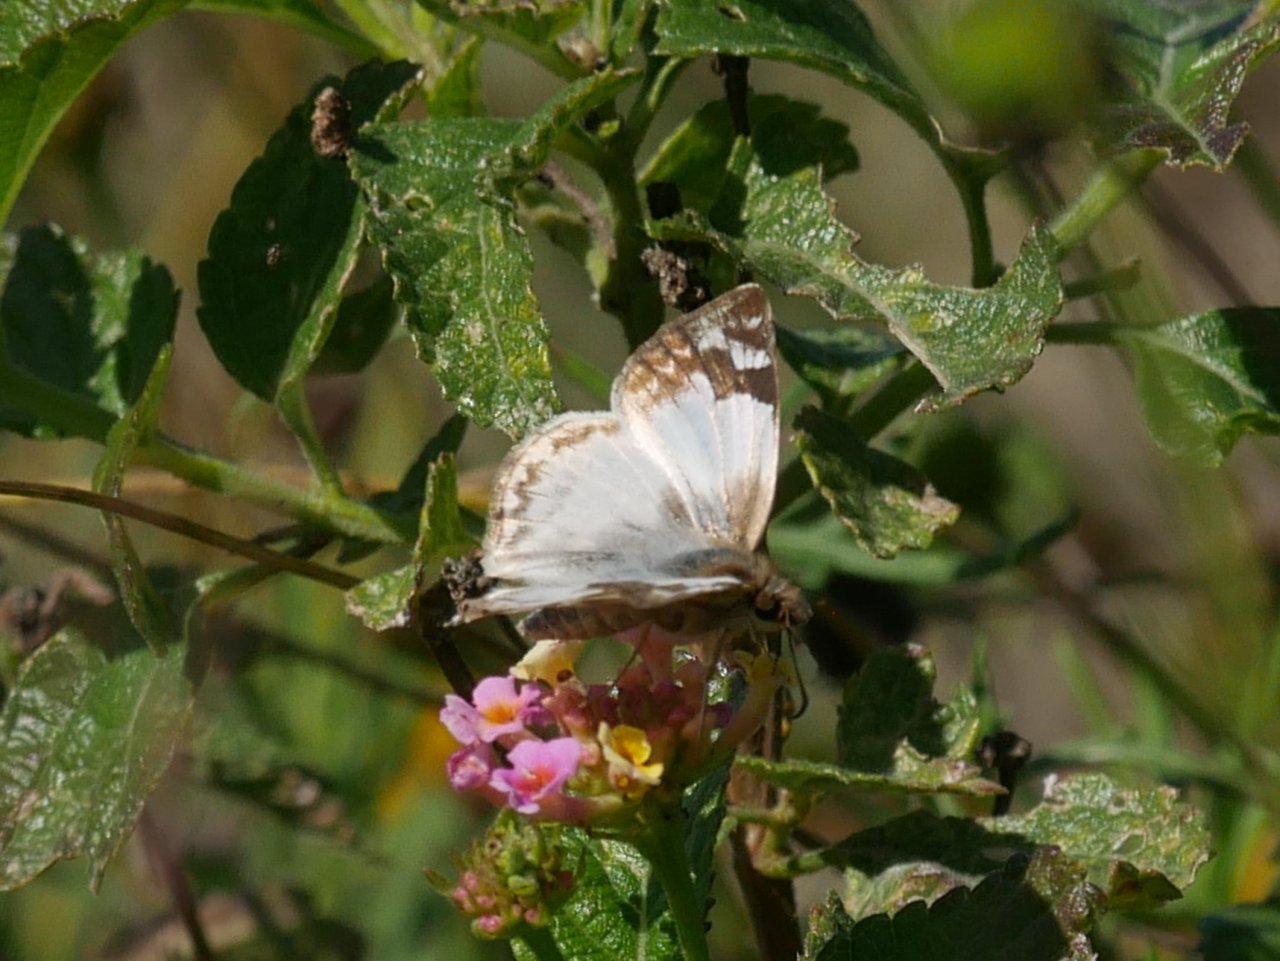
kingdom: Animalia
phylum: Arthropoda
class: Insecta
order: Lepidoptera
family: Hesperiidae
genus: Heliopetes
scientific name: Heliopetes laviana
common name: Laviana White-Skipper
